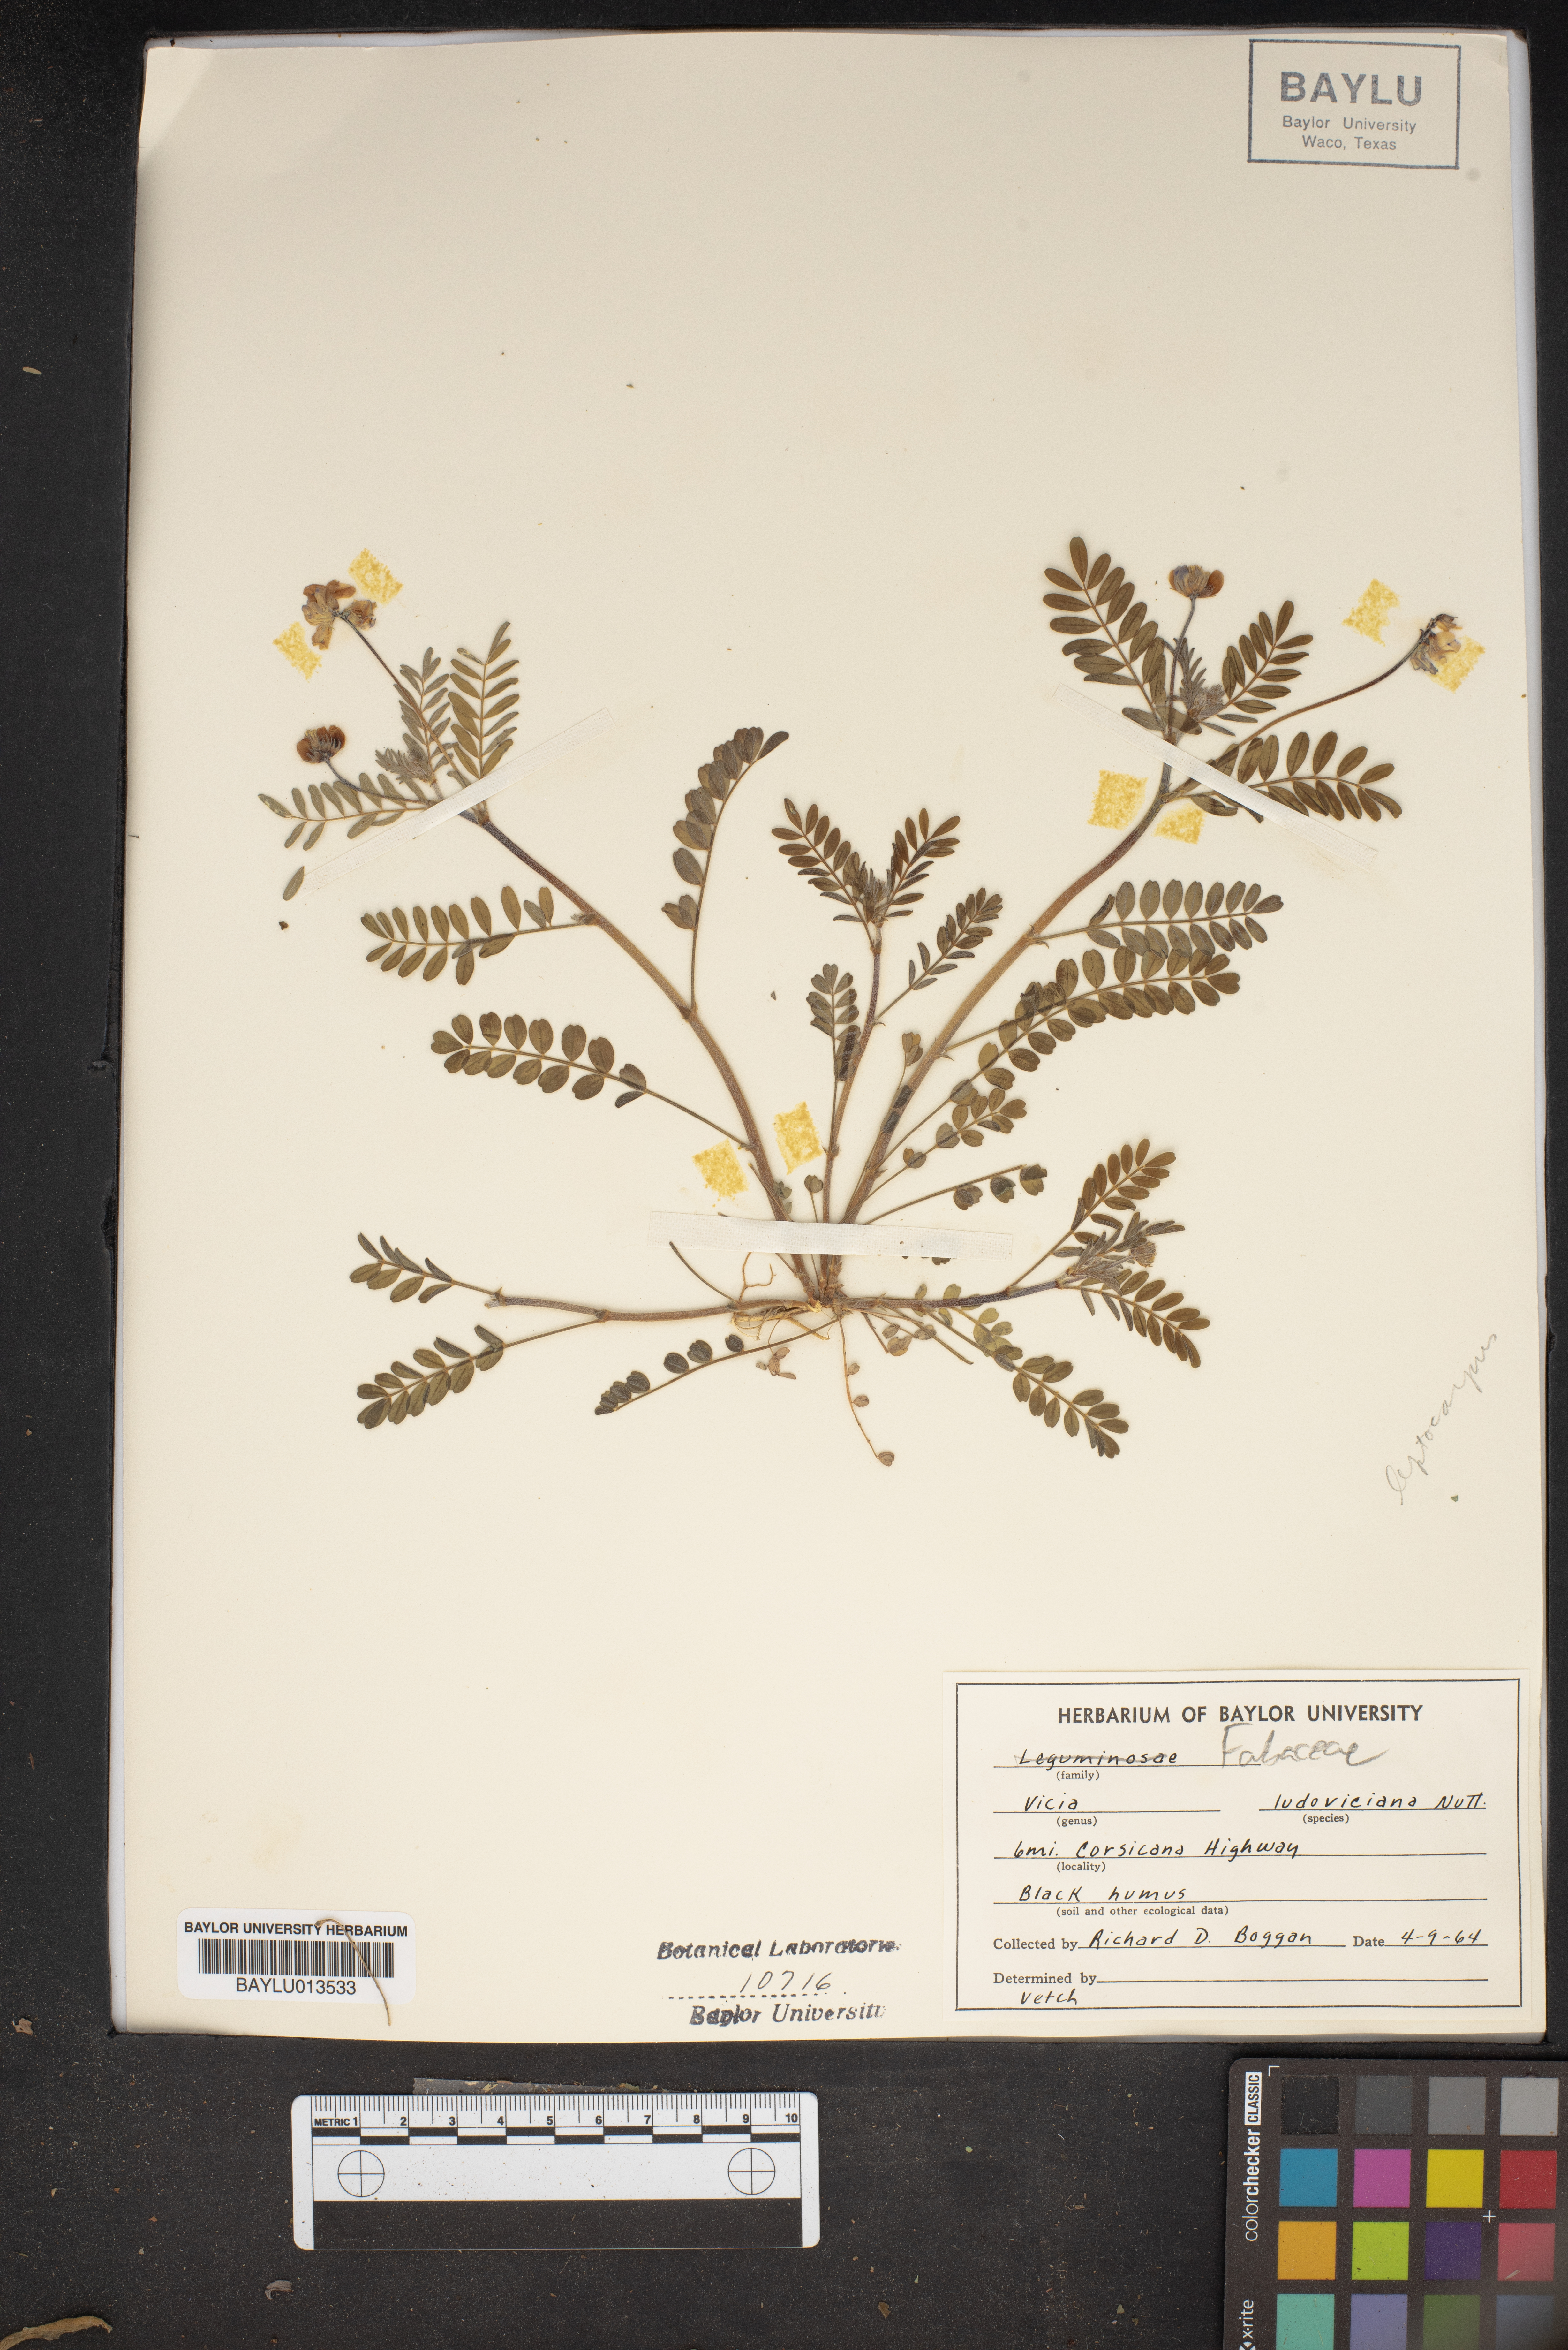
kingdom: Plantae
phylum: Tracheophyta
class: Magnoliopsida
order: Fabales
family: Fabaceae
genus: Vicia
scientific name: Vicia ludoviciana
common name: Louisiana vetch
